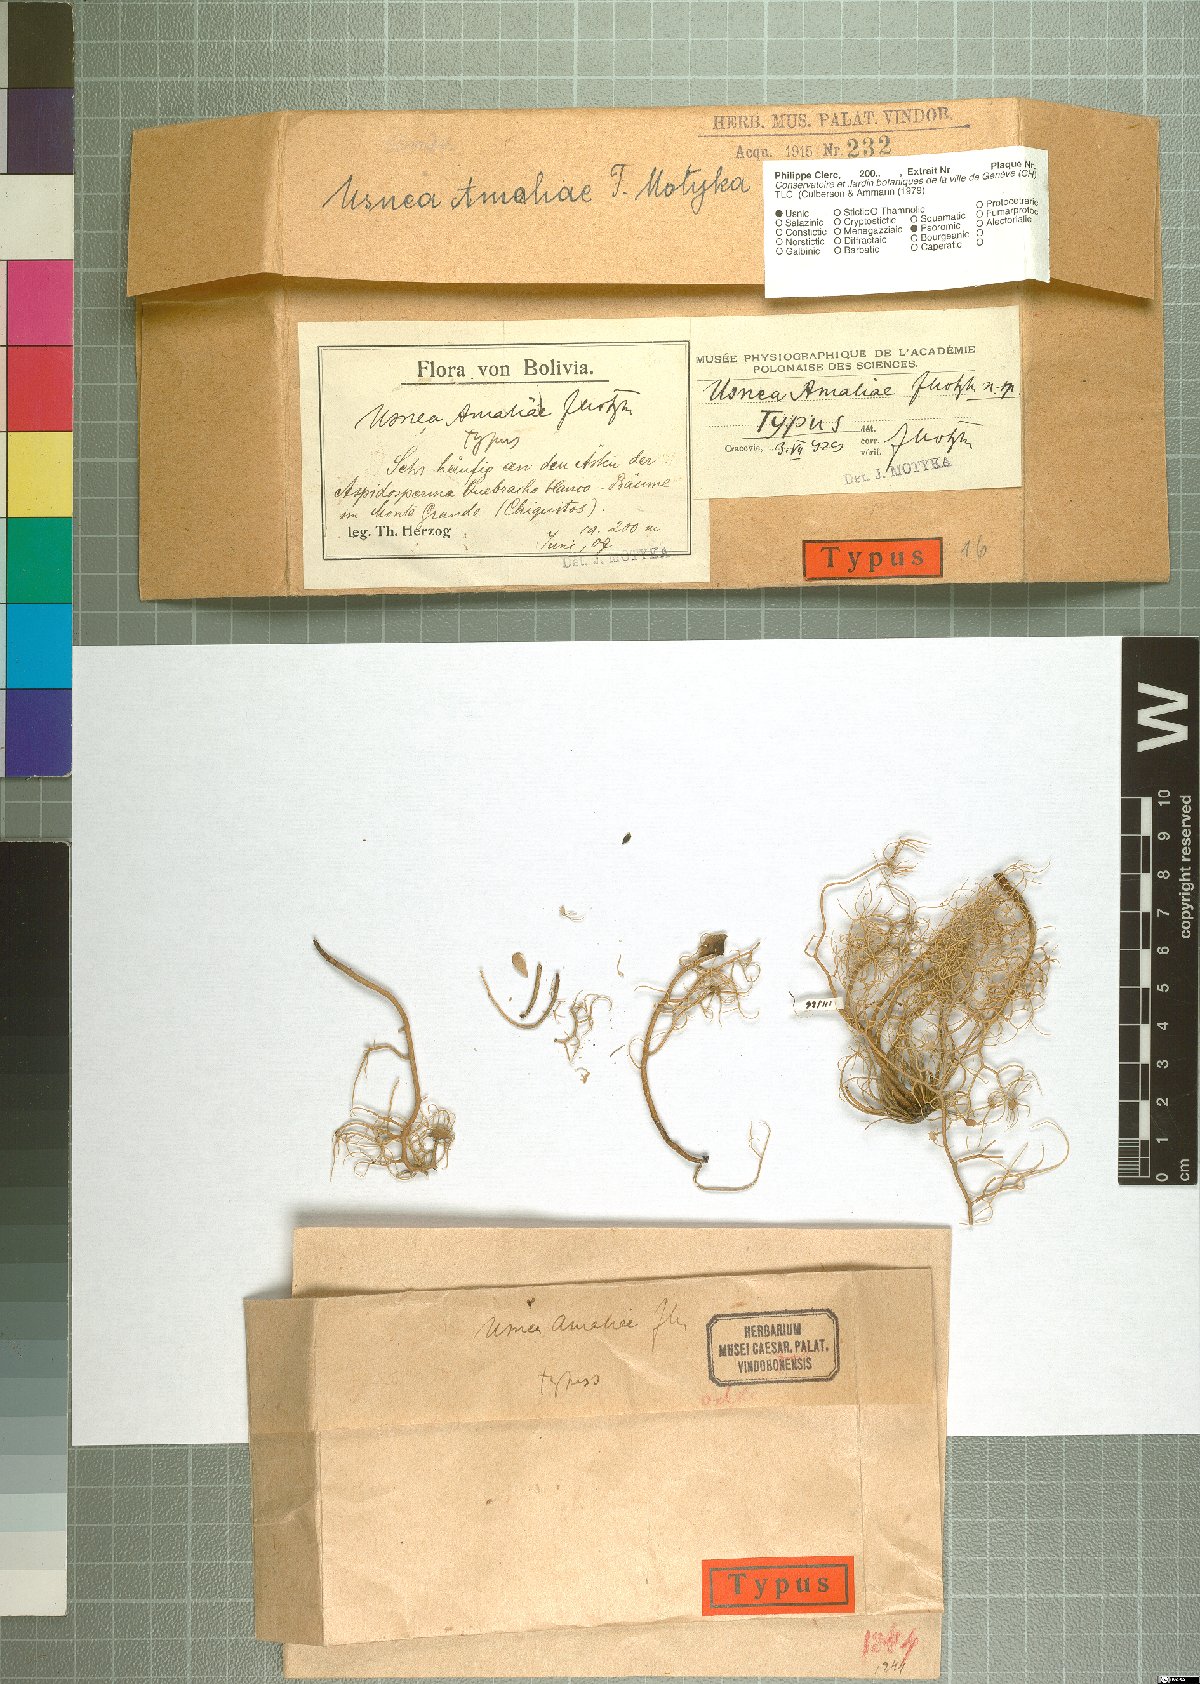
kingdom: Fungi
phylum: Ascomycota
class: Lecanoromycetes
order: Lecanorales
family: Parmeliaceae
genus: Usnea
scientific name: Usnea amaliae
